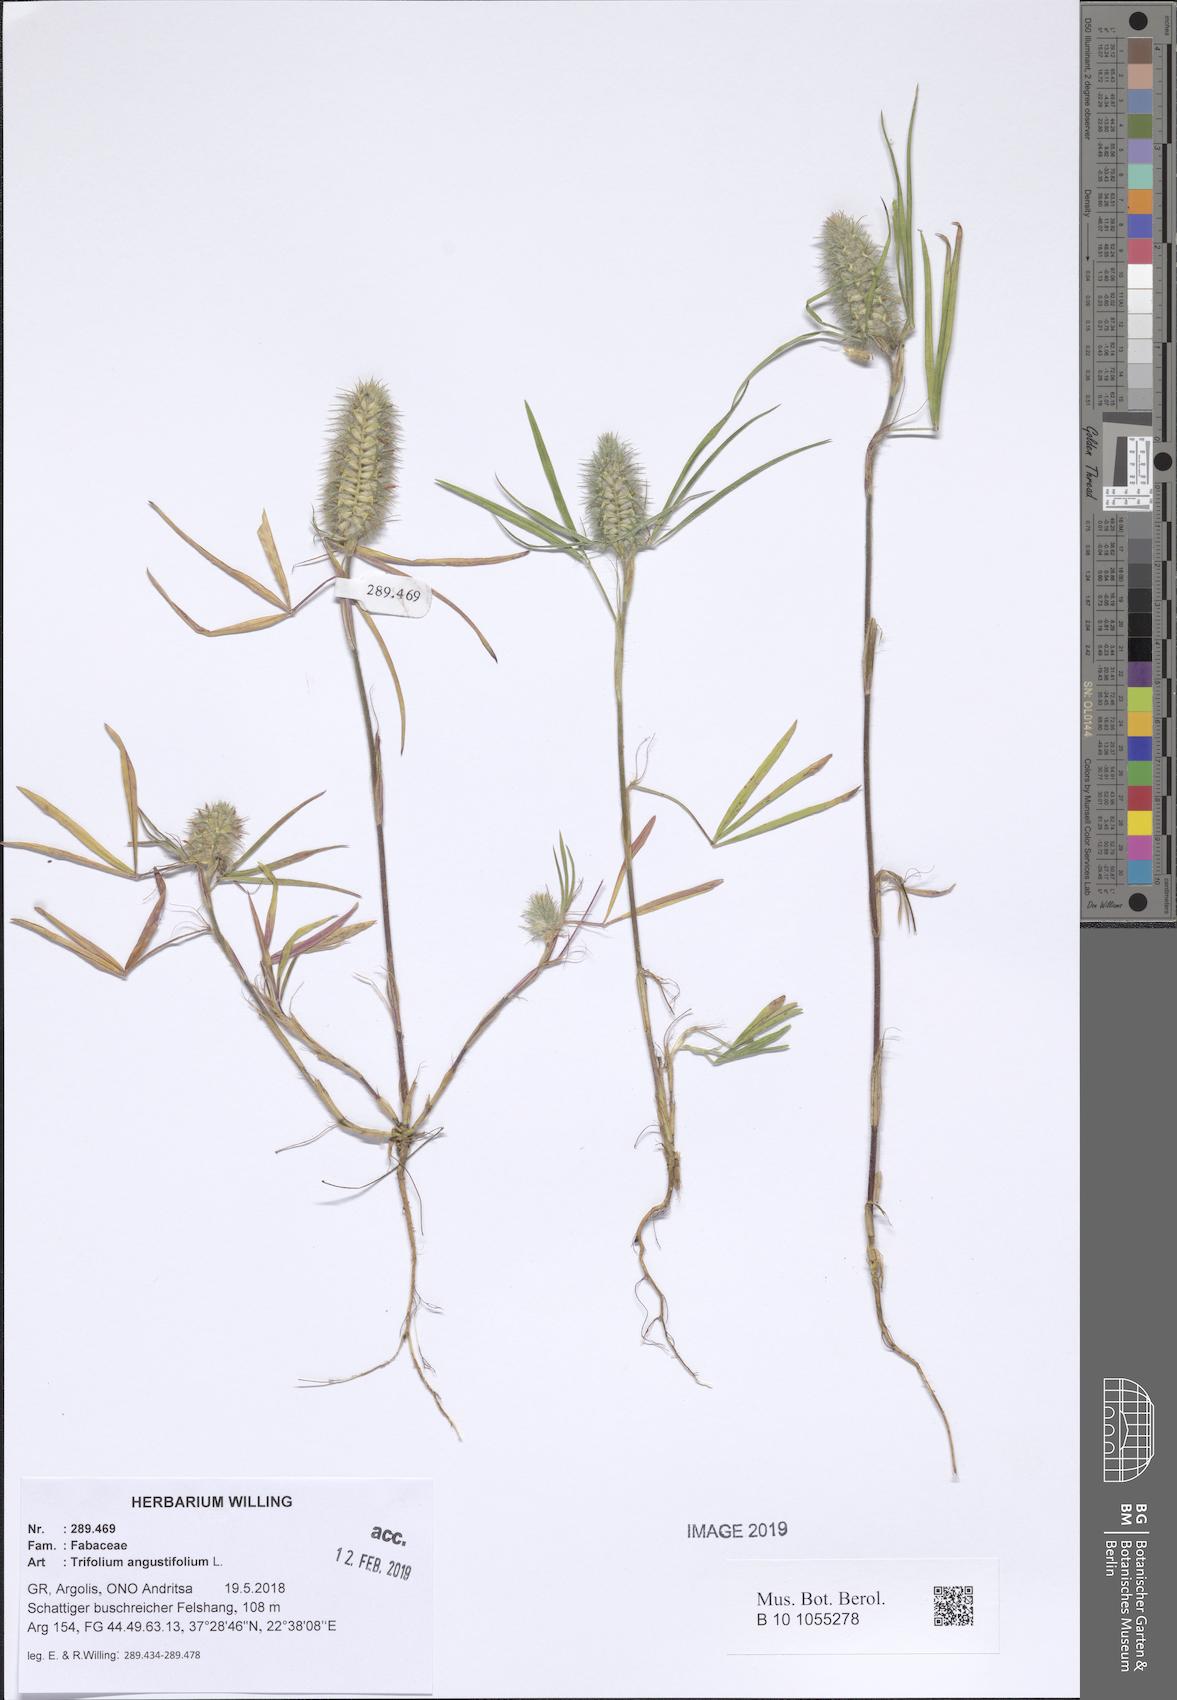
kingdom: Plantae
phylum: Tracheophyta
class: Magnoliopsida
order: Fabales
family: Fabaceae
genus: Trifolium
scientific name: Trifolium angustifolium
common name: Narrow clover
